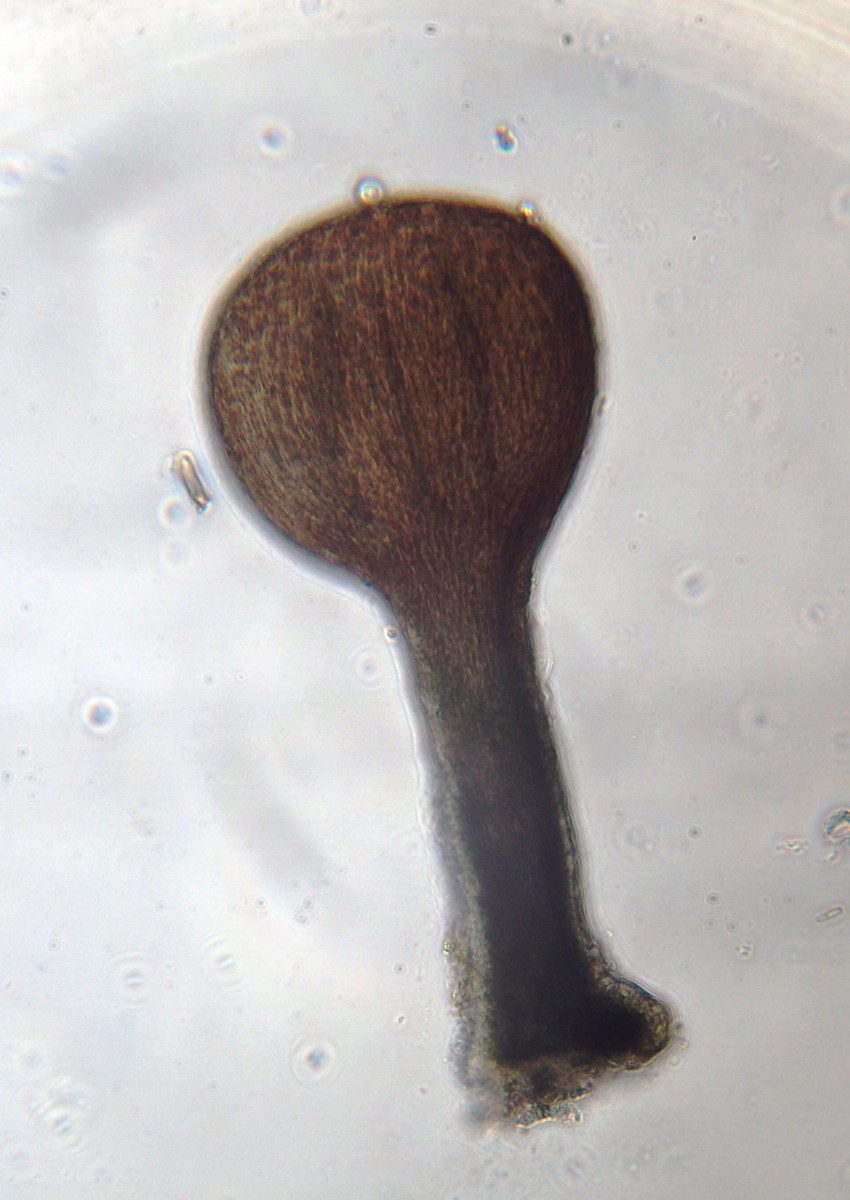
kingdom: Fungi
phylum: Ascomycota
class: Eurotiomycetes
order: Mycocaliciales
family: Mycocaliciaceae
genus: Stenocybe
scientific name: Stenocybe pullatula
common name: elle-nålesvamp
